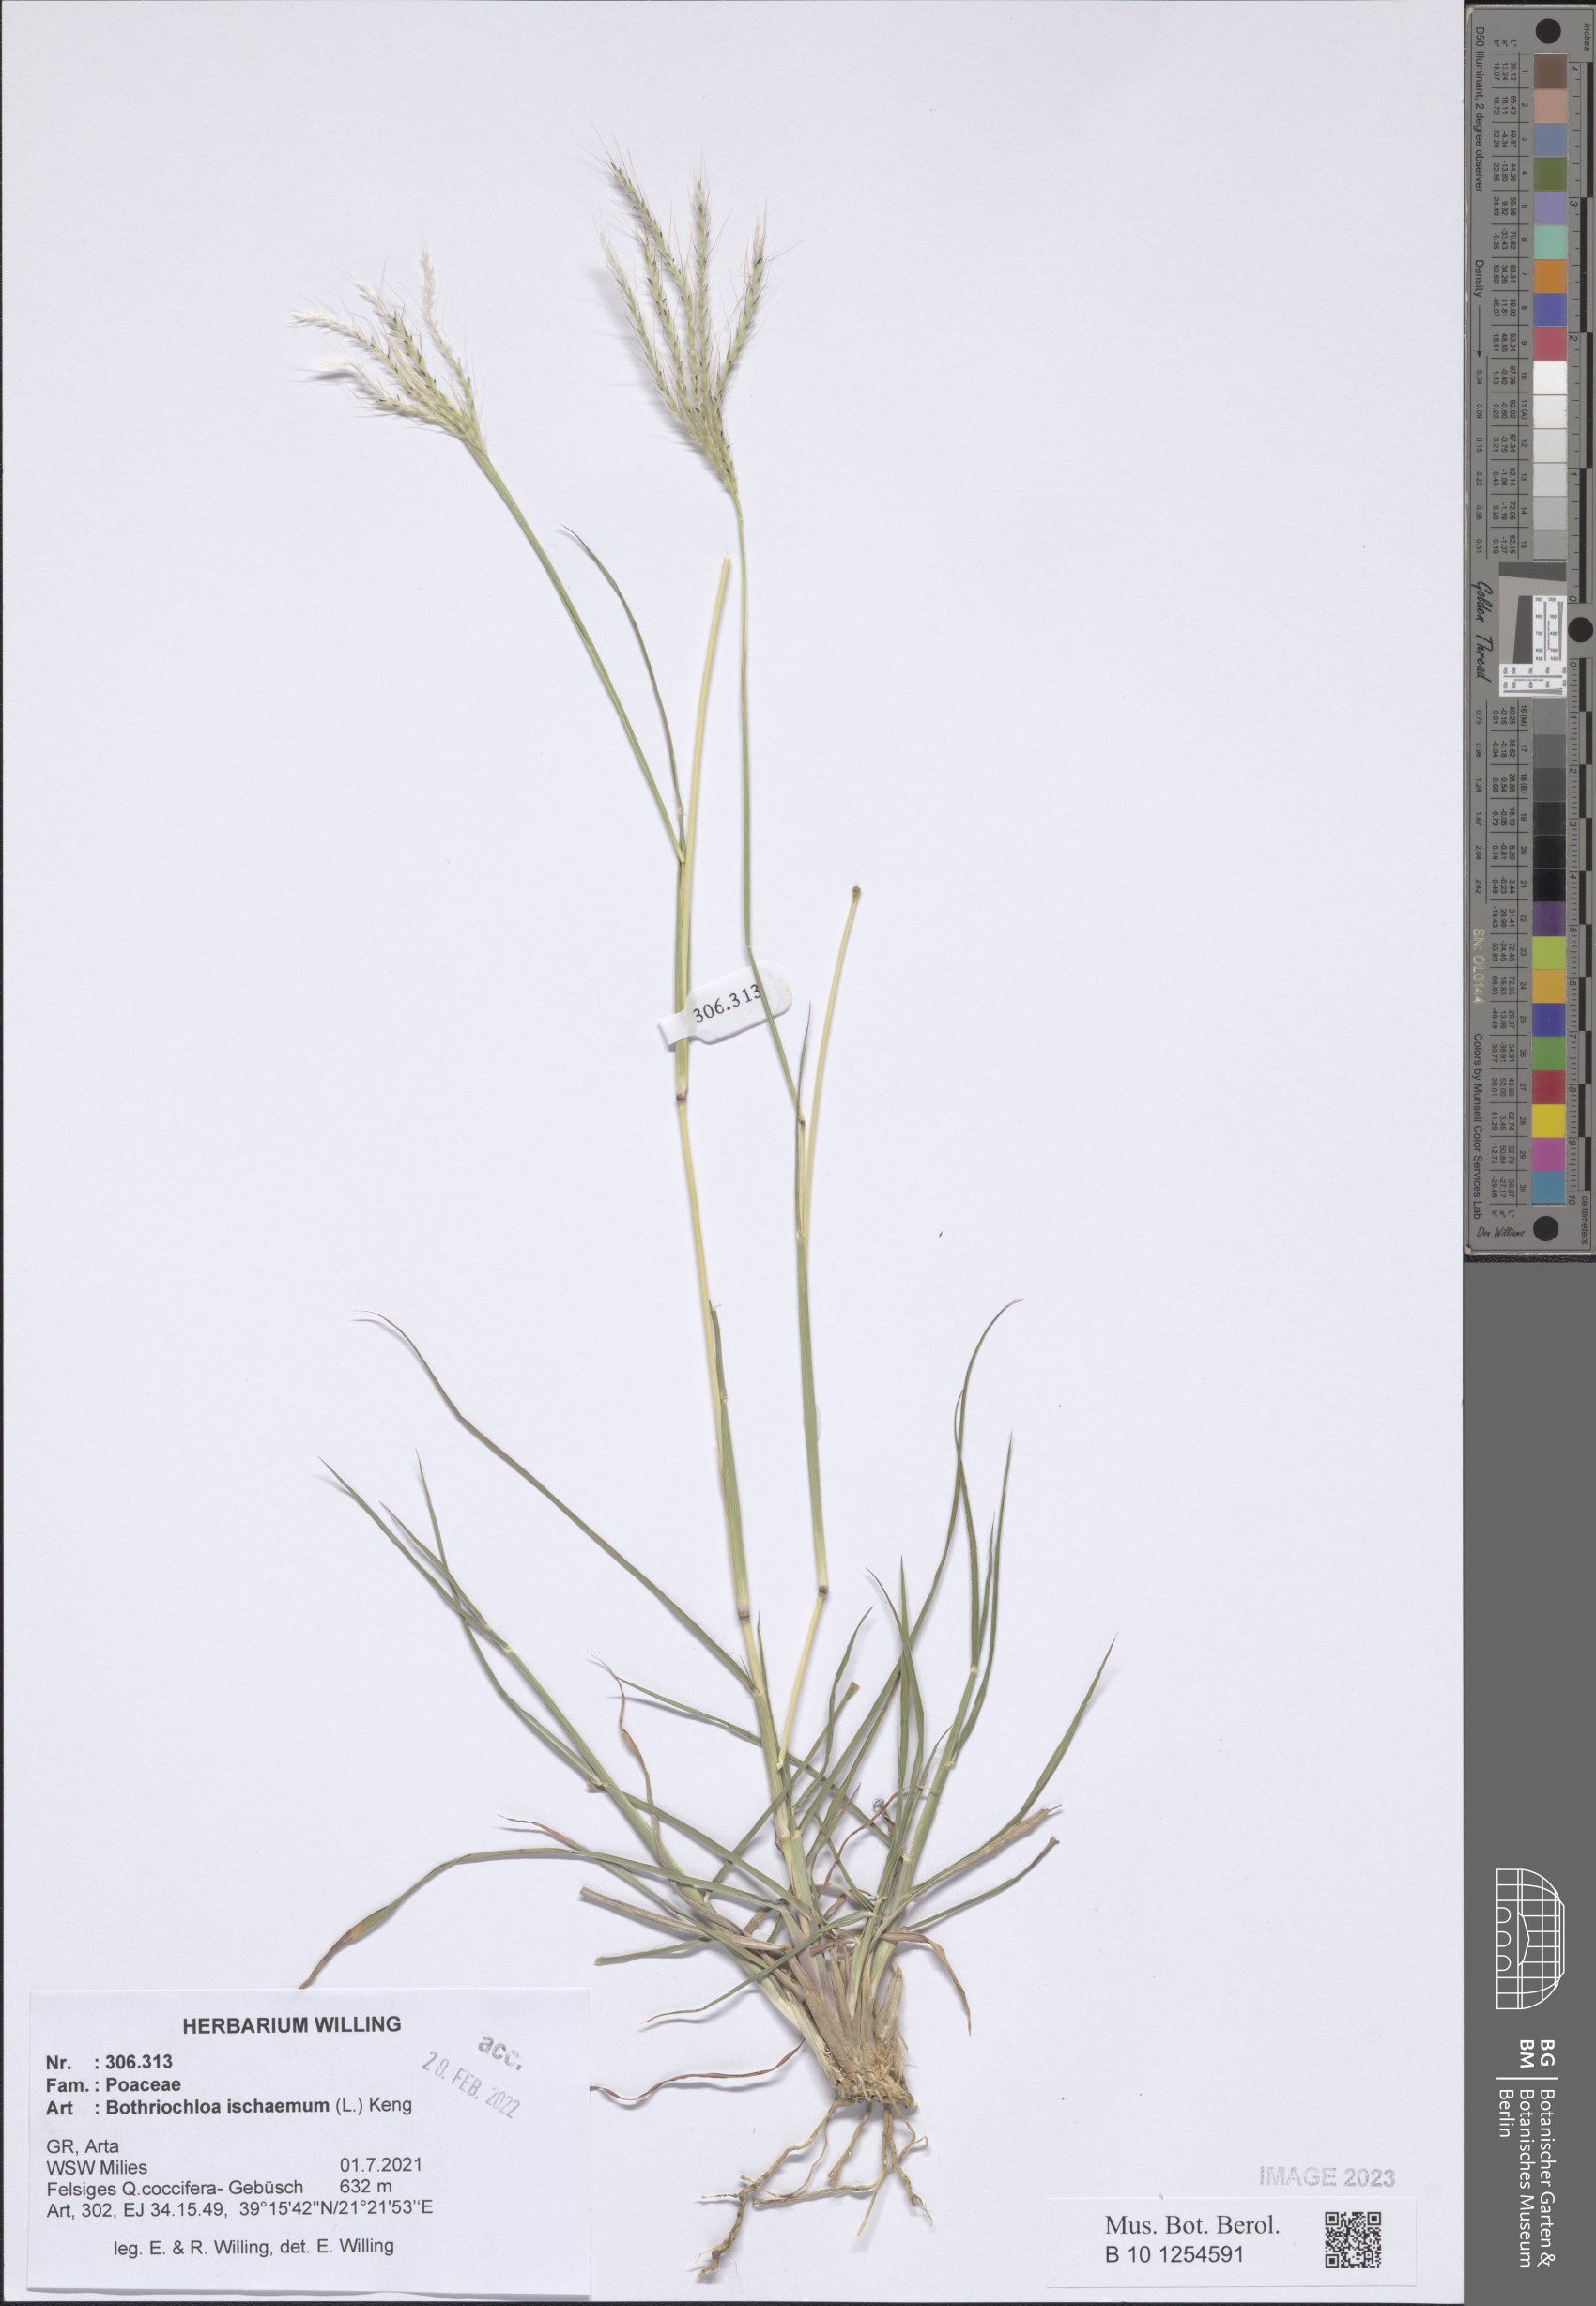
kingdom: Plantae
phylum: Tracheophyta
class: Liliopsida
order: Poales
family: Poaceae
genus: Bothriochloa
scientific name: Bothriochloa ischaemum
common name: Yellow bluestem
